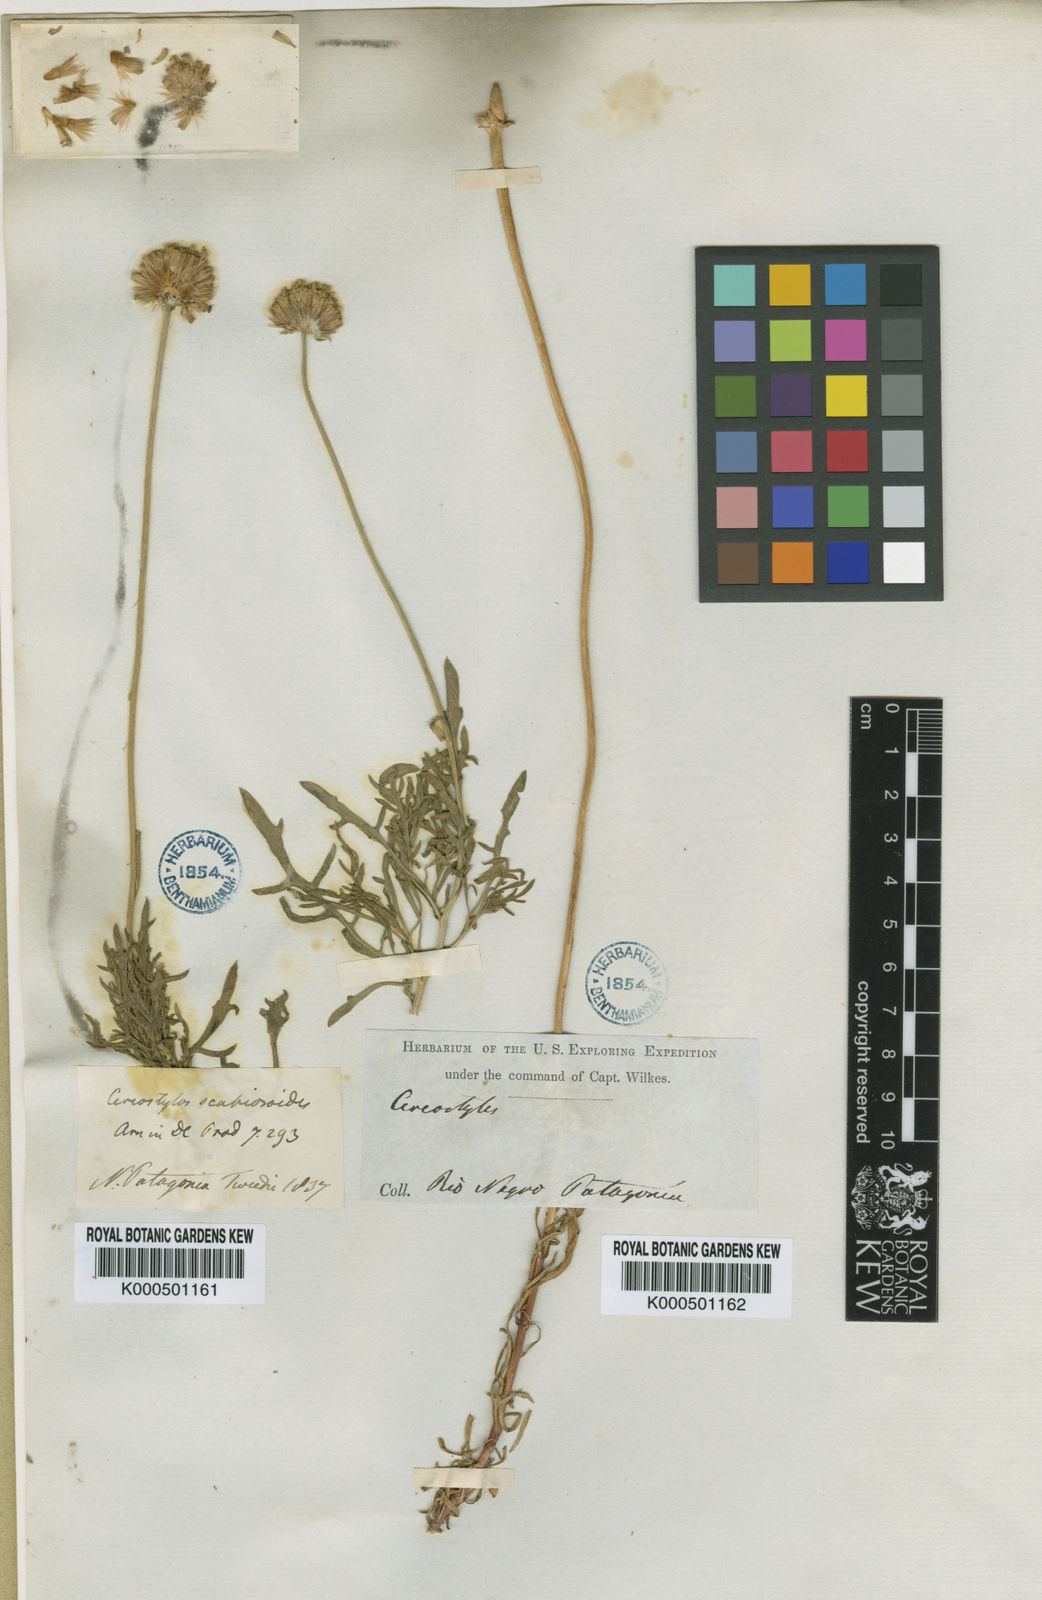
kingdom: Plantae
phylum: Tracheophyta
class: Magnoliopsida
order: Asterales
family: Asteraceae
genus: Gaillardia
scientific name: Gaillardia megapotamica
